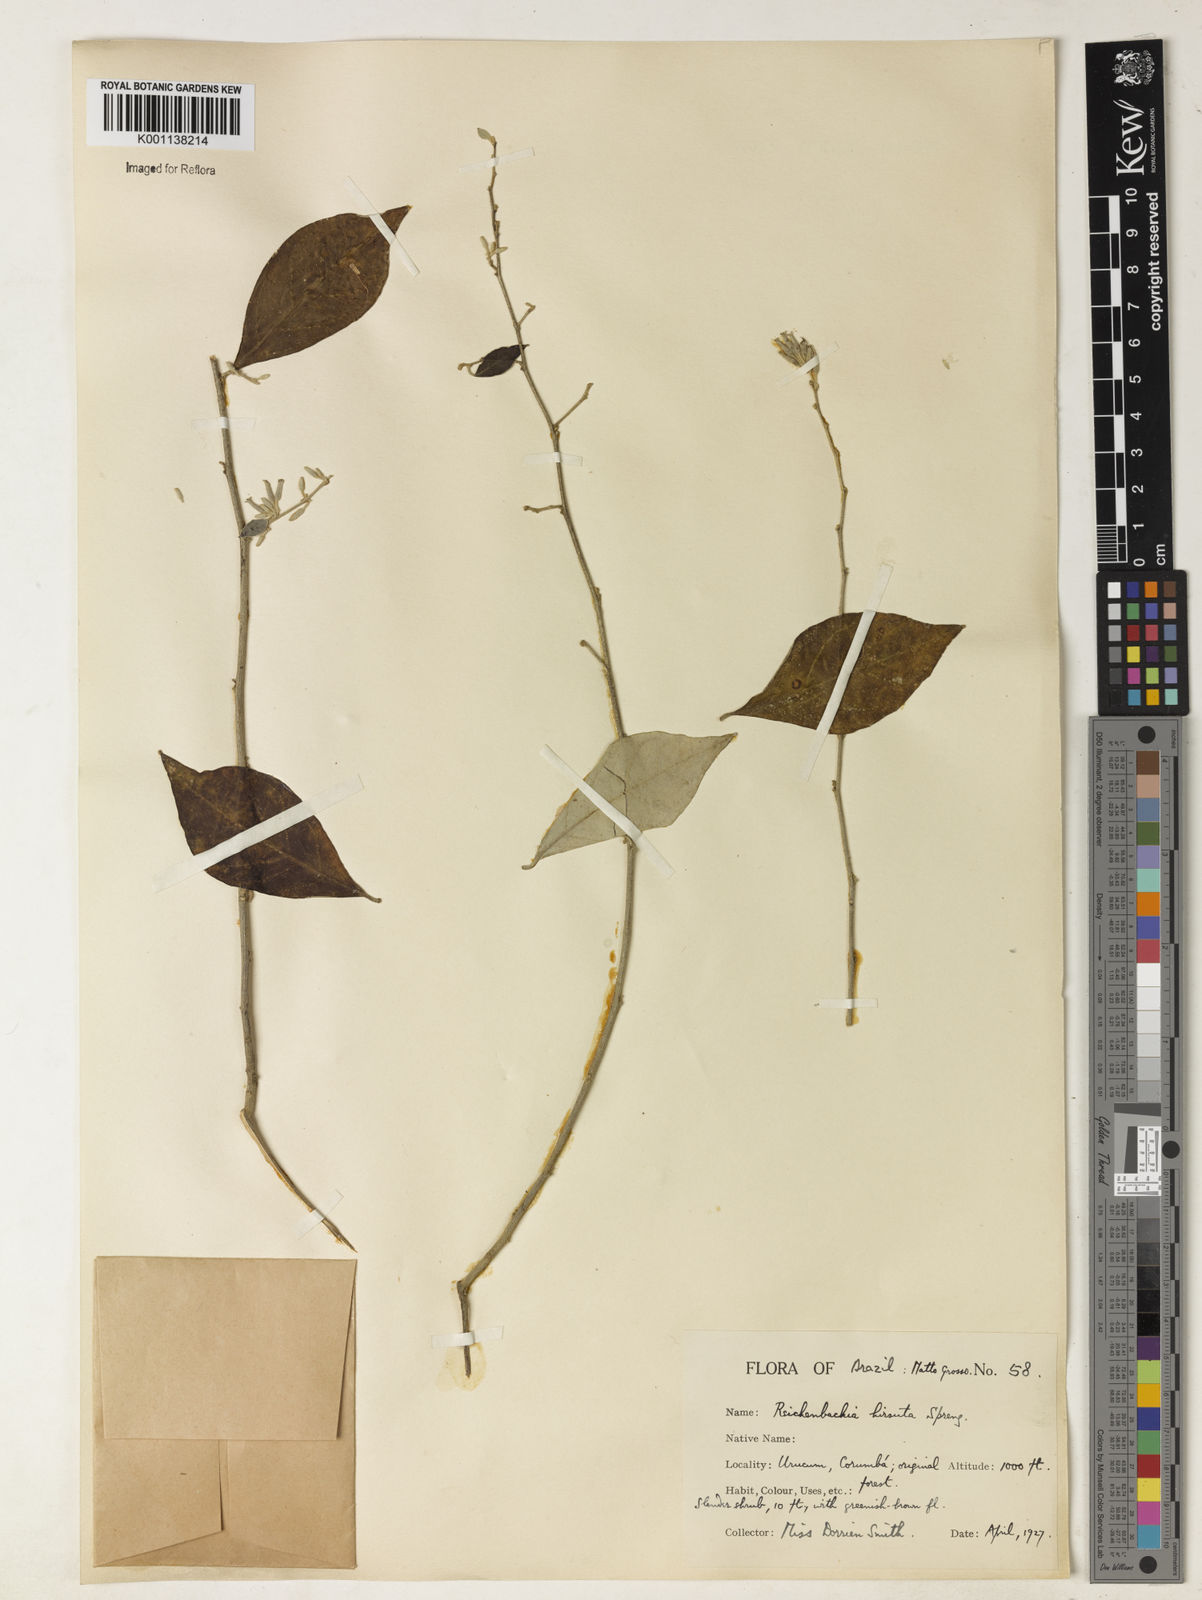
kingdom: Plantae
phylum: Tracheophyta
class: Magnoliopsida
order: Caryophyllales
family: Nyctaginaceae
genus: Reichenbachia
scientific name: Reichenbachia hirsuta
